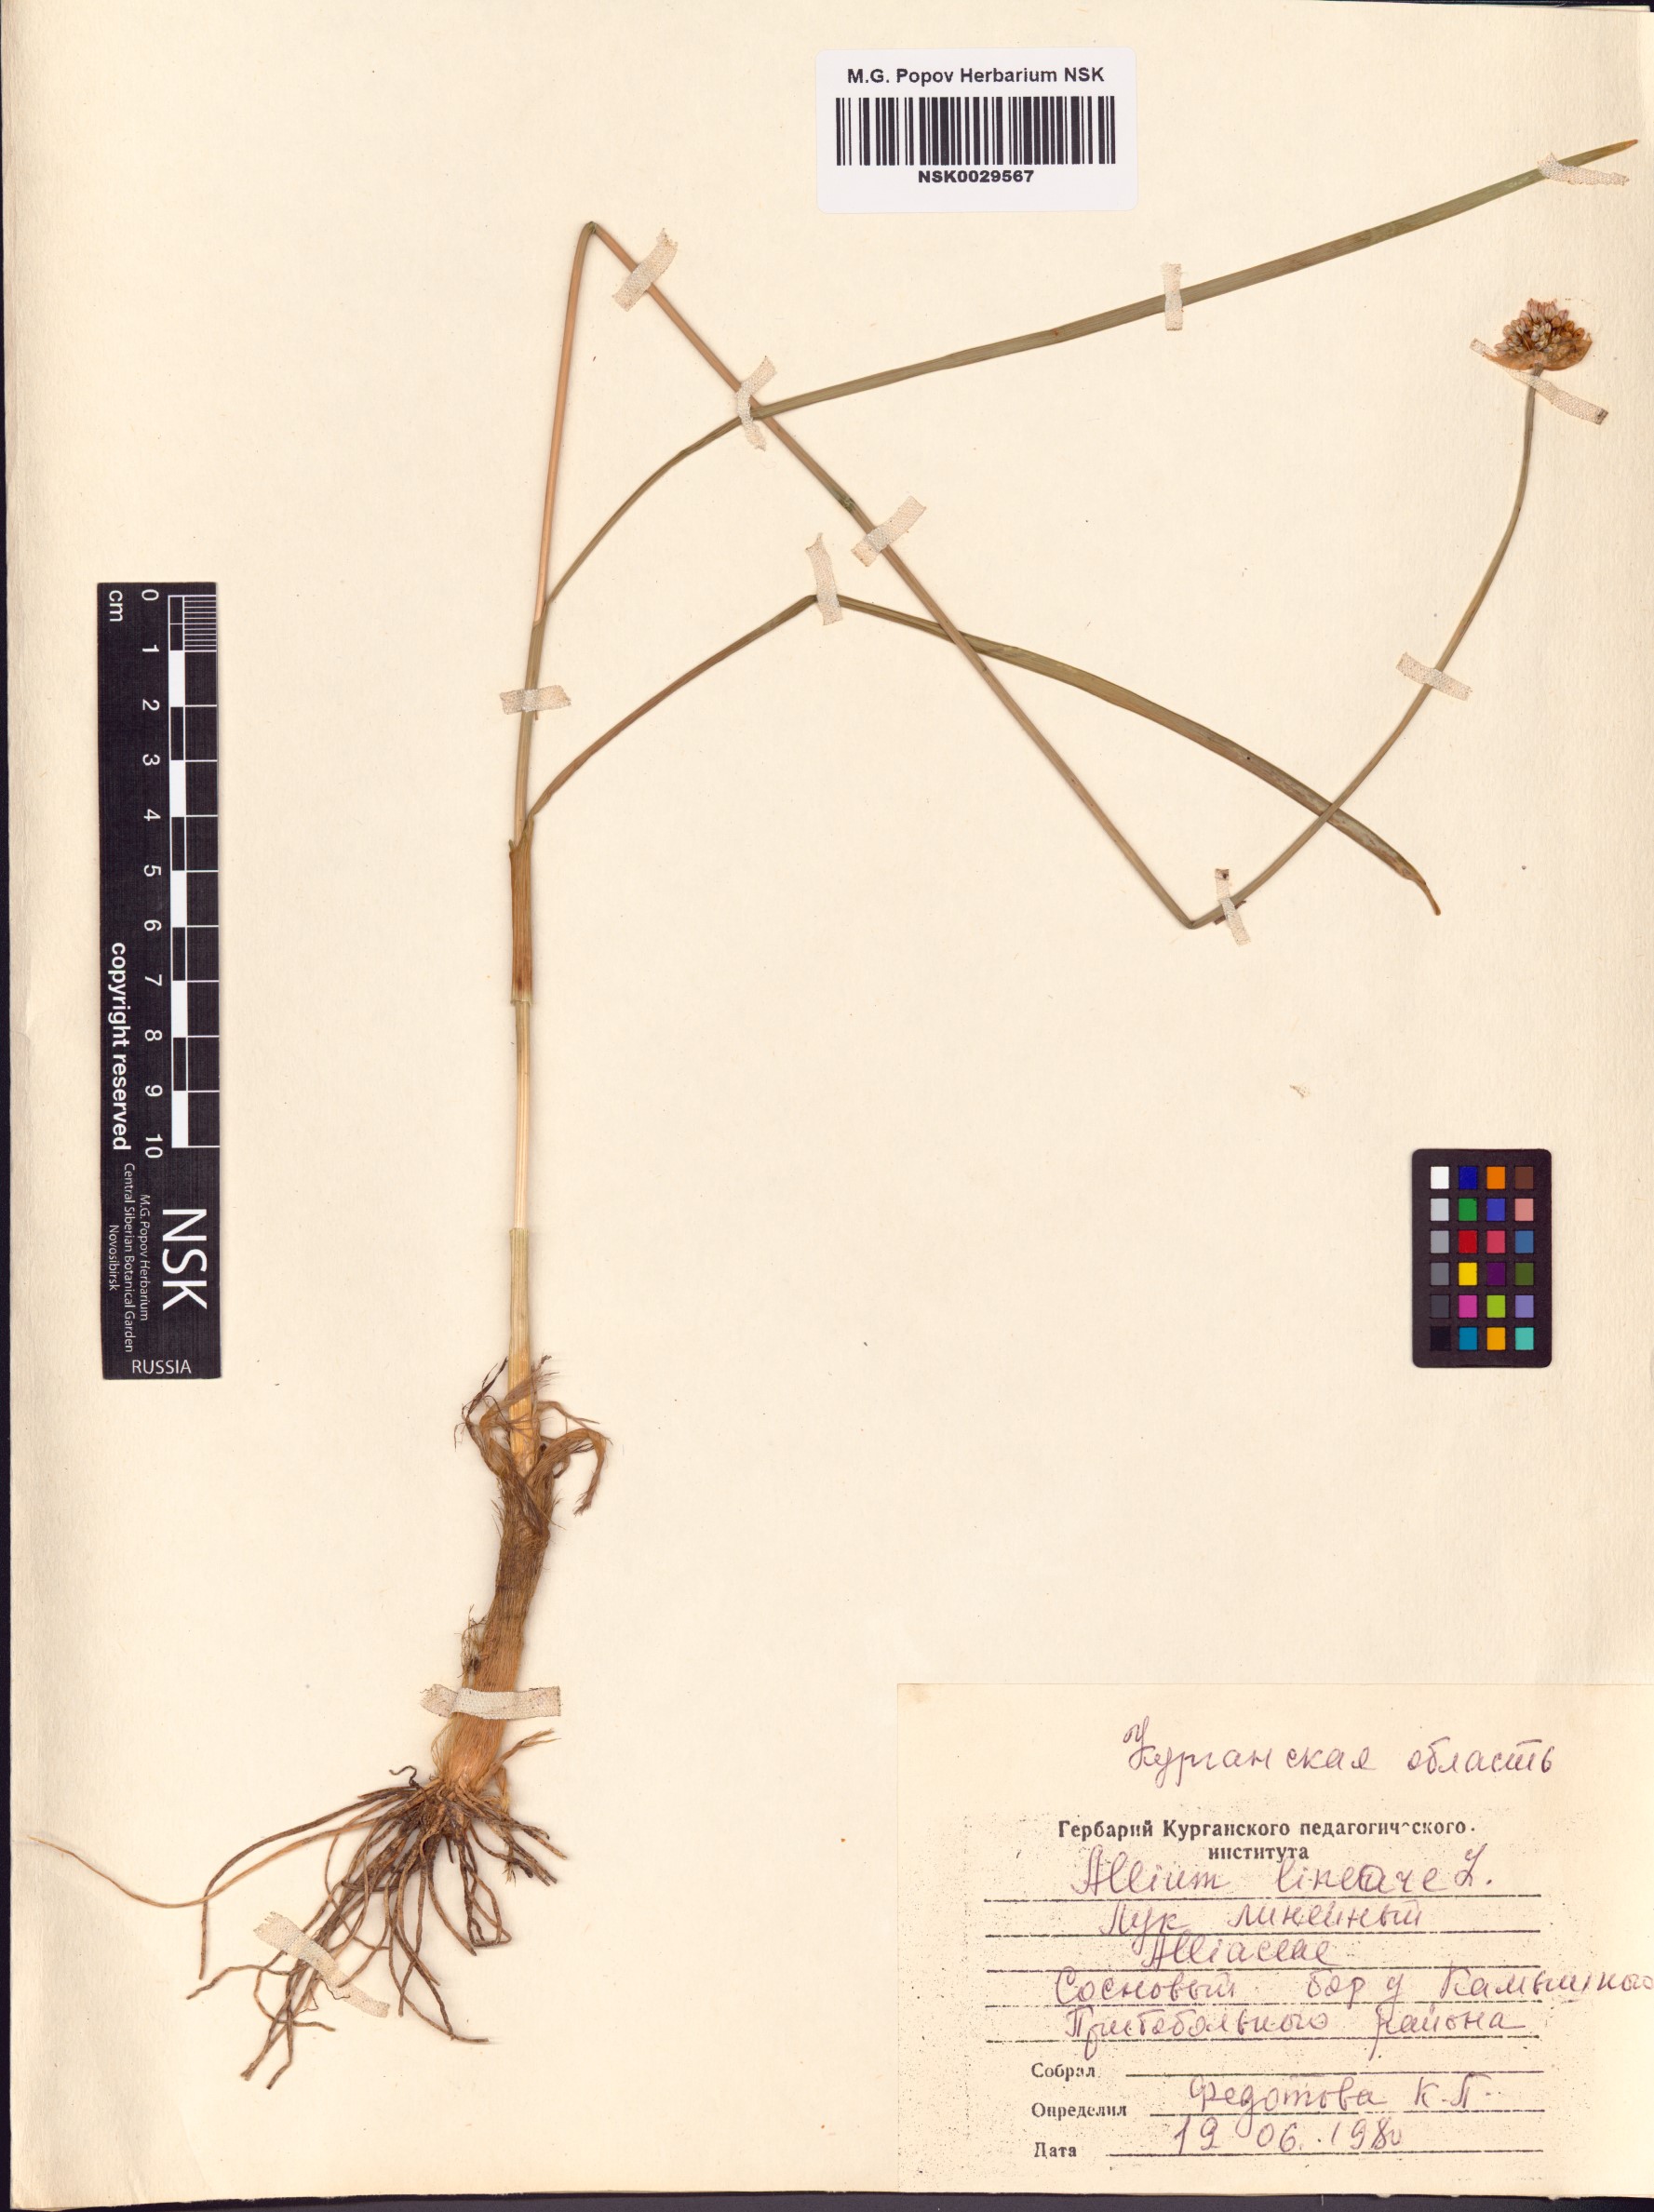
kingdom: Plantae
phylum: Tracheophyta
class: Liliopsida
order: Asparagales
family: Amaryllidaceae
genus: Allium
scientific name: Allium lineare
